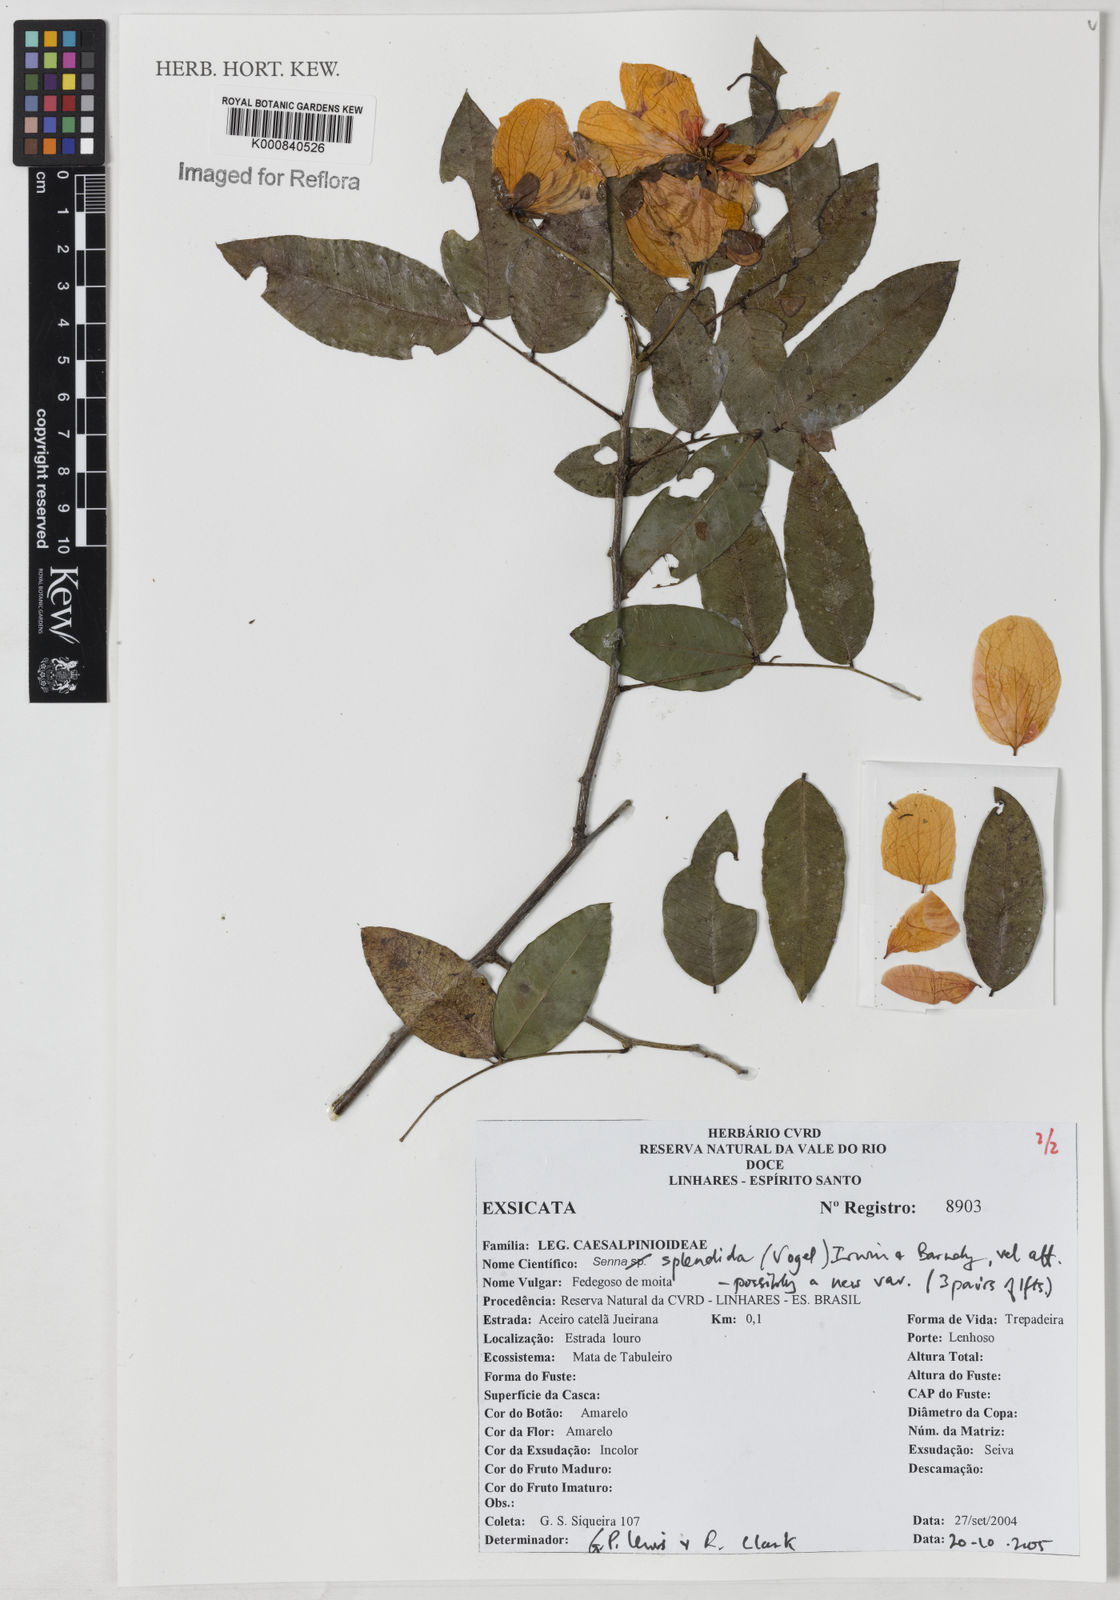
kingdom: Plantae
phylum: Tracheophyta
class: Magnoliopsida
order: Fabales
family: Fabaceae
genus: Senna
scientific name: Senna splendida
